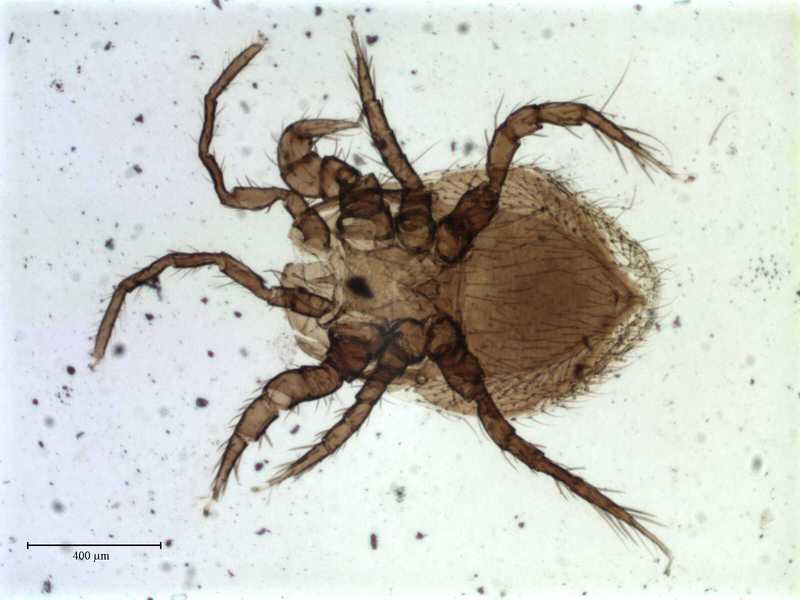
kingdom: Animalia
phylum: Arthropoda
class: Arachnida
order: Mesostigmata
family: Parasitidae
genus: Parasitellus
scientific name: Parasitellus ignotus
